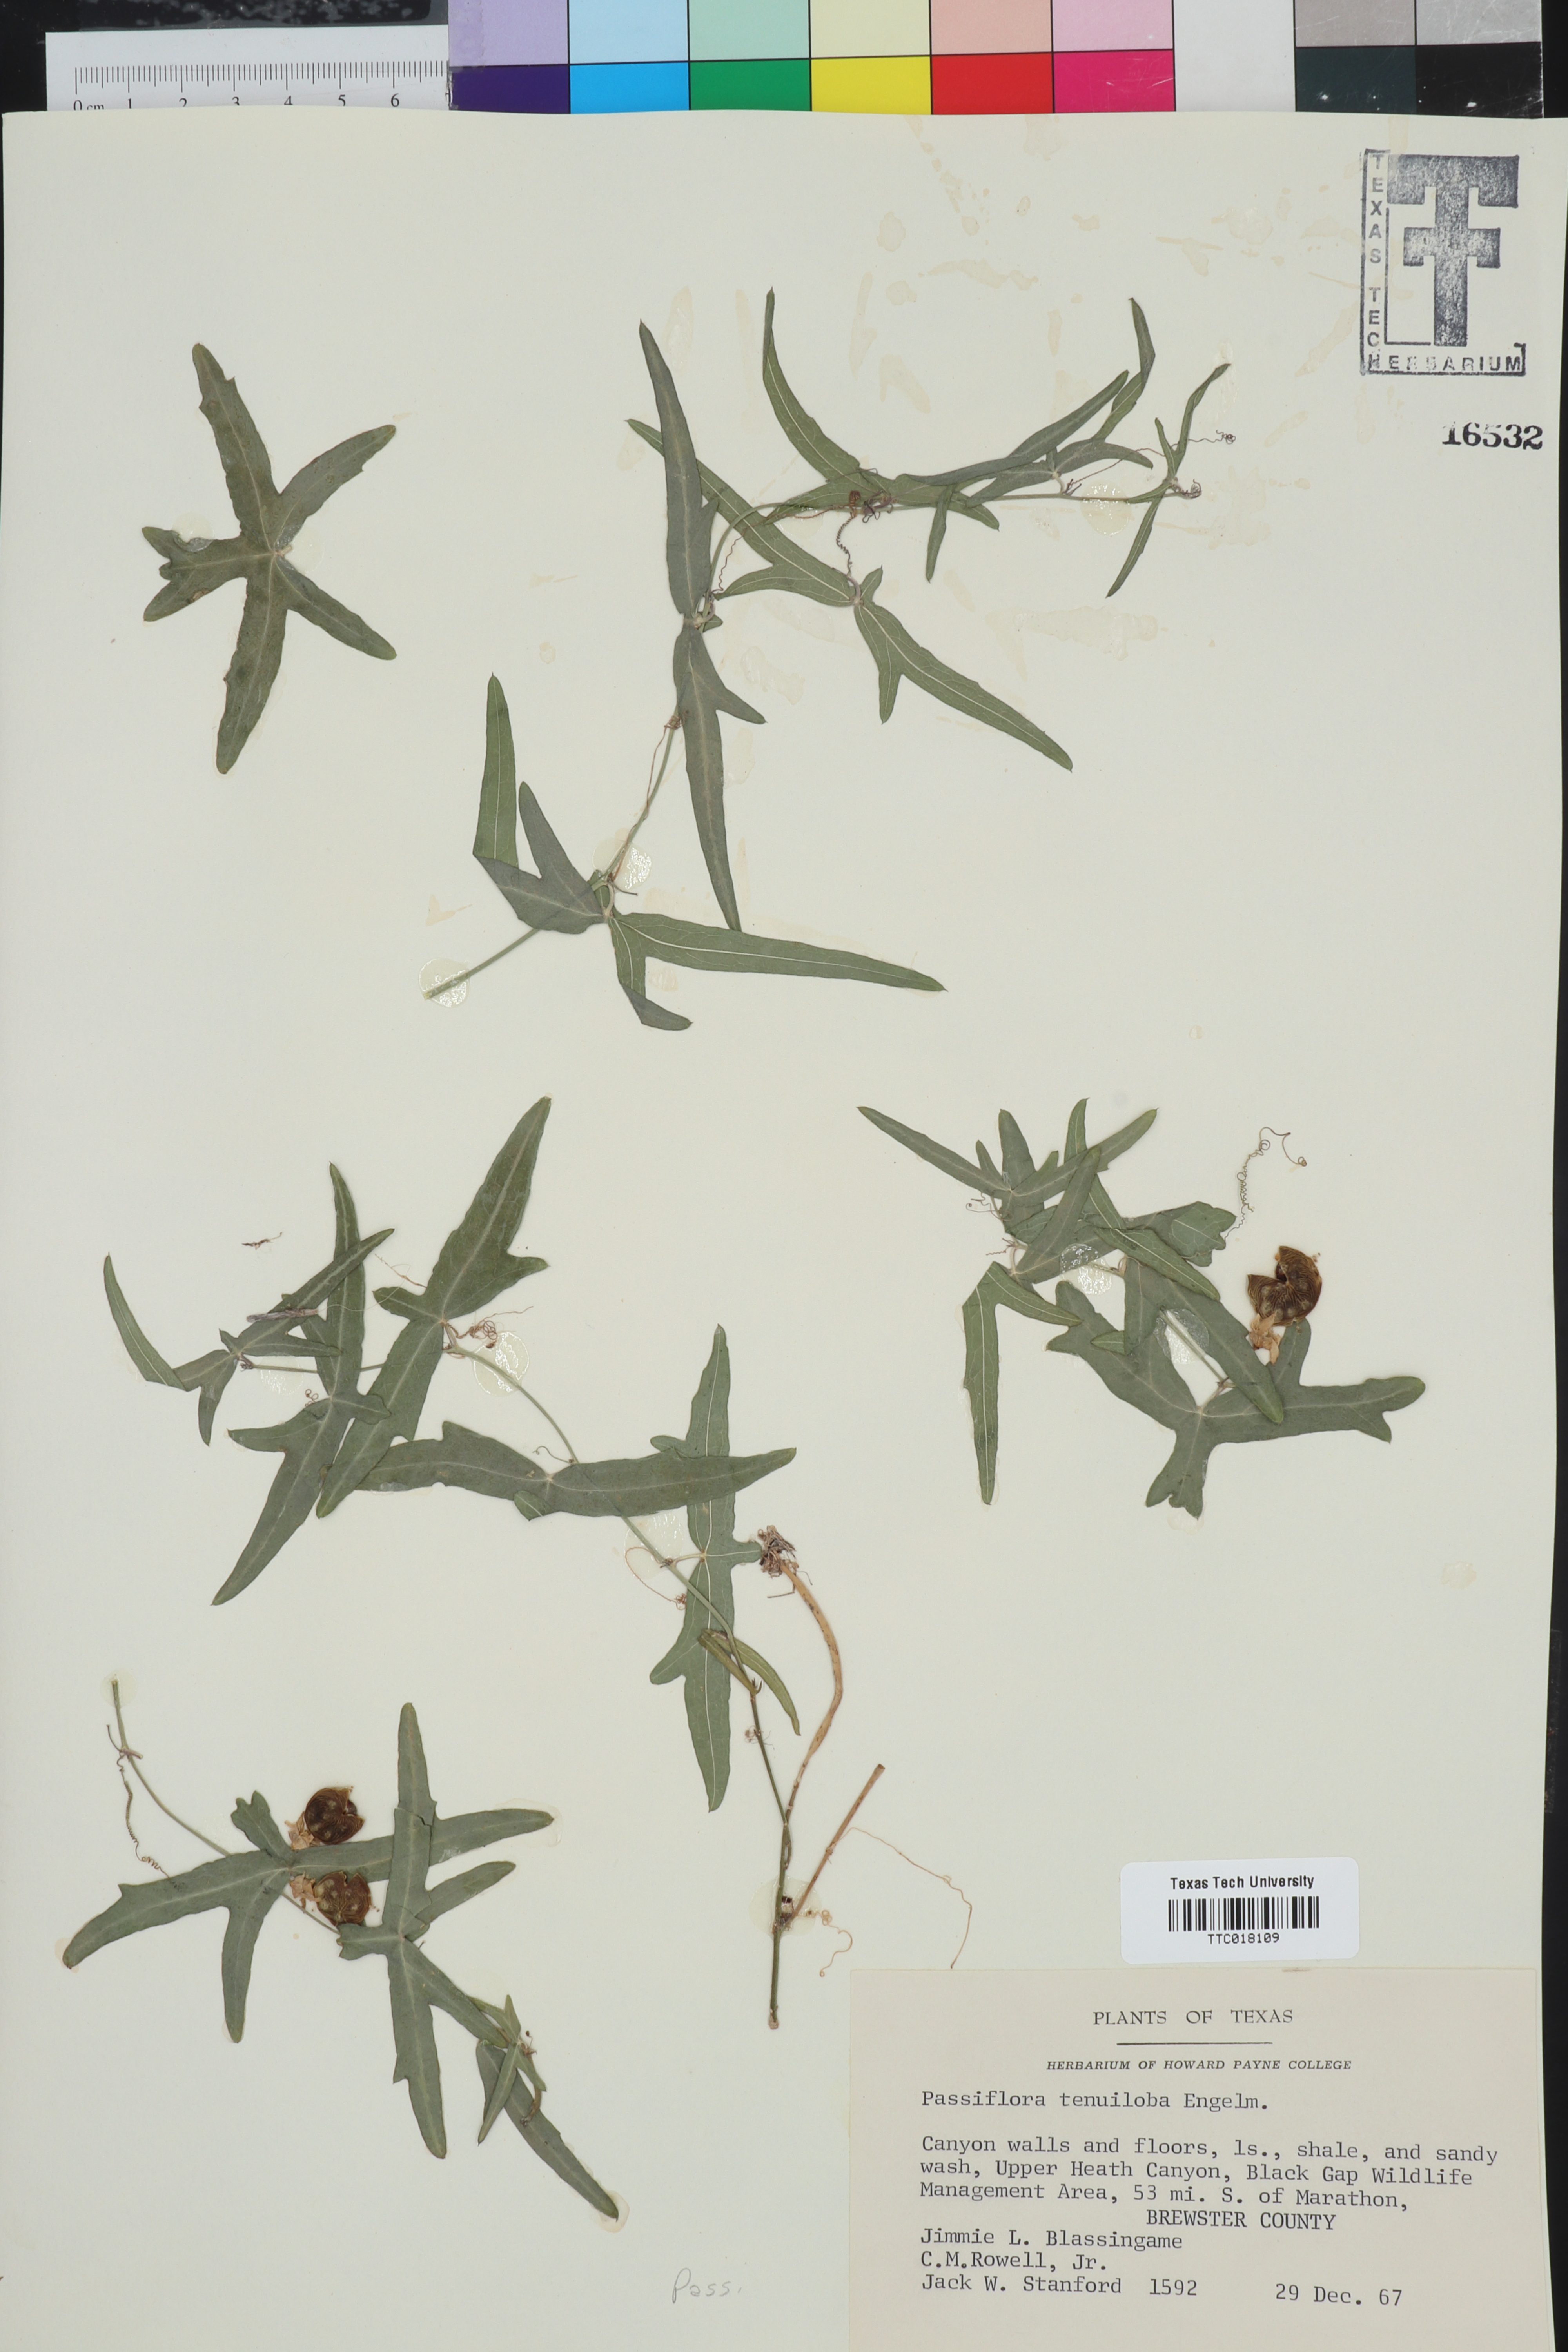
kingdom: Plantae
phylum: Tracheophyta
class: Magnoliopsida
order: Malpighiales
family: Passifloraceae
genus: Passiflora
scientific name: Passiflora tenuiloba
